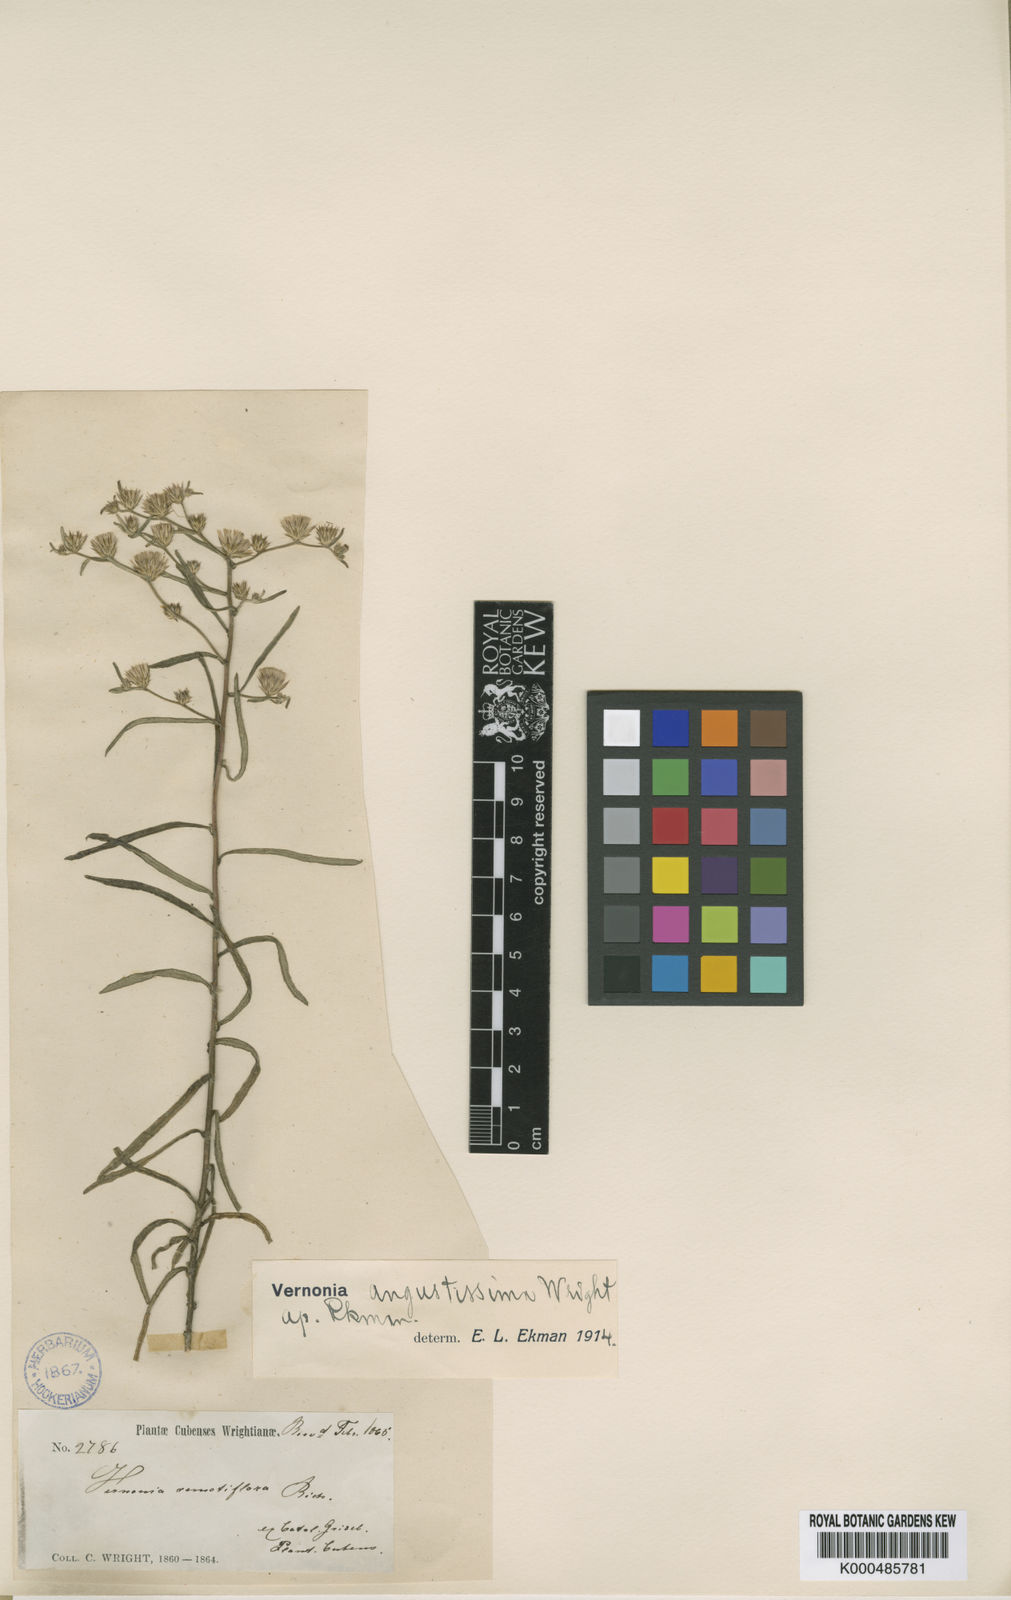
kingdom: Plantae
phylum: Tracheophyta
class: Magnoliopsida
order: Asterales
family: Asteraceae
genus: Vernonia
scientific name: Vernonia
